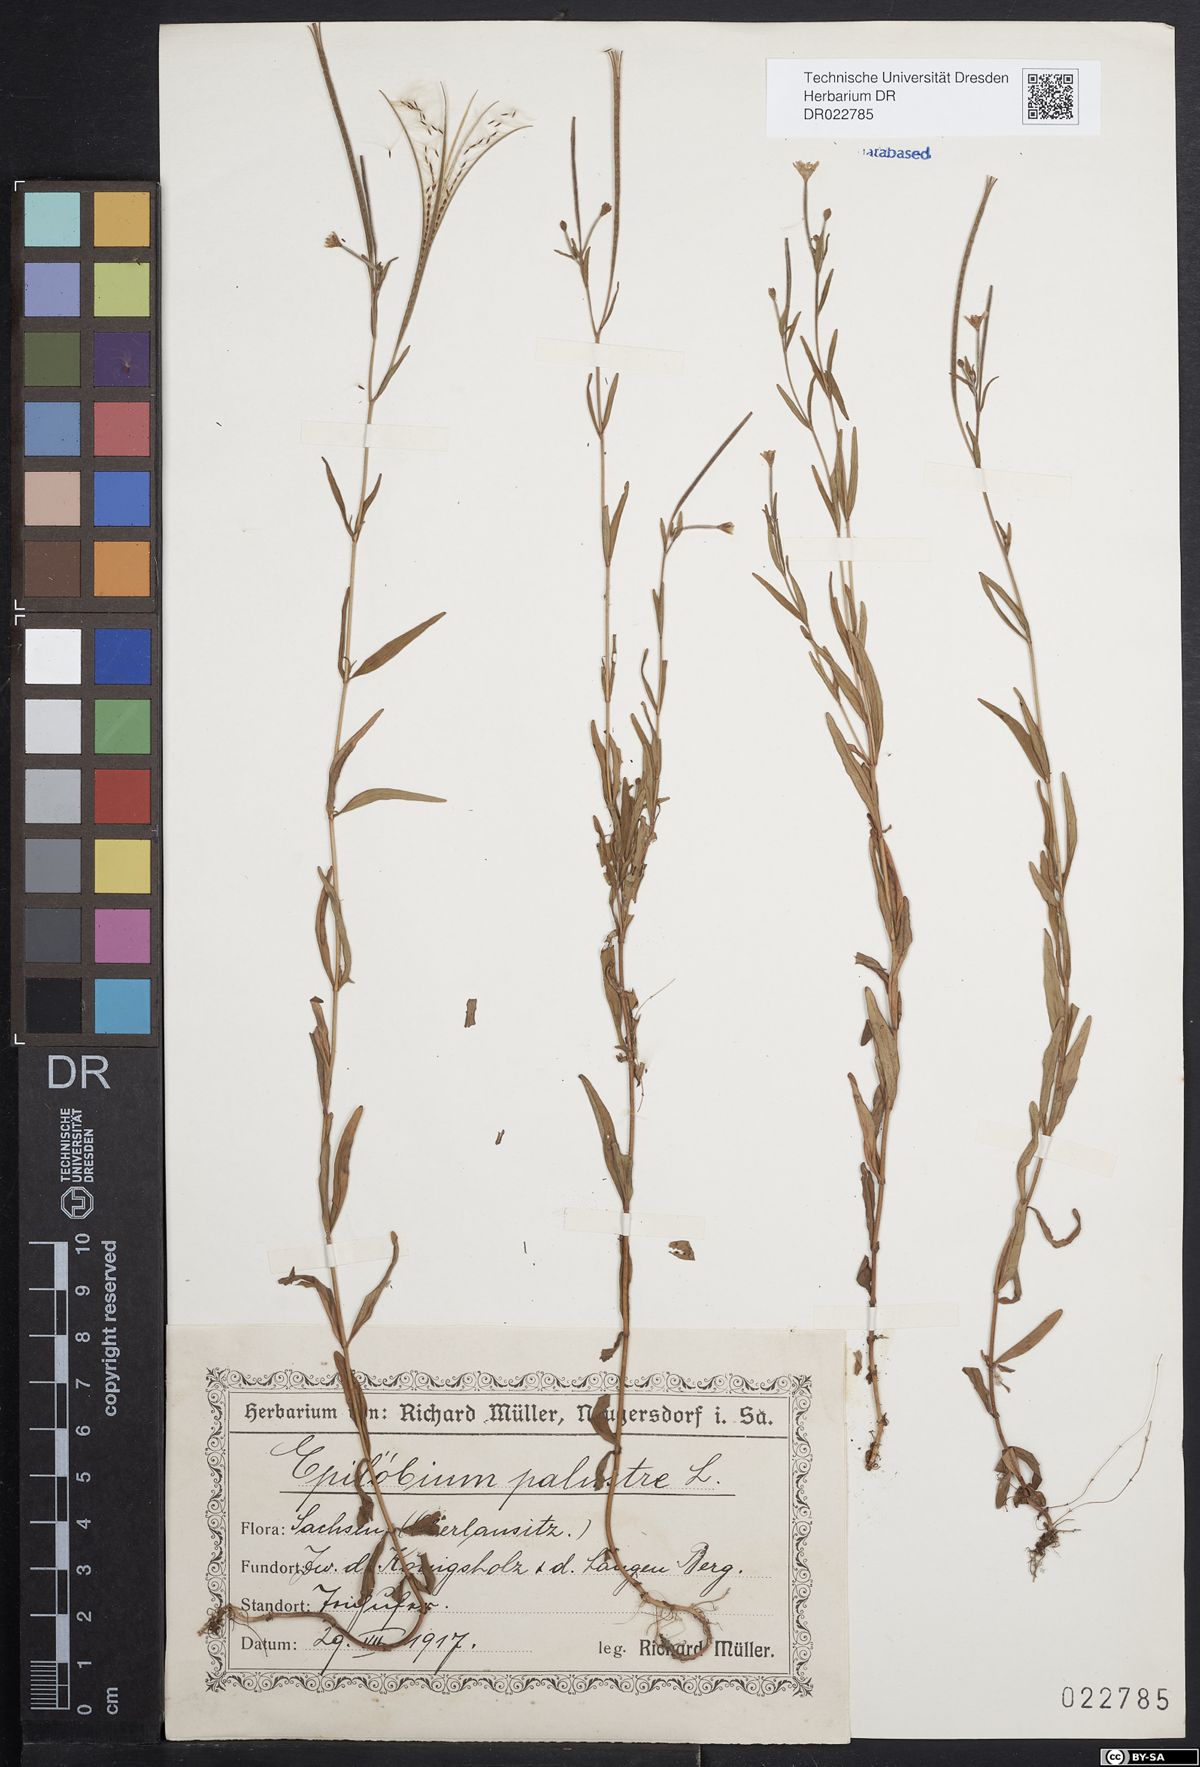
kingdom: Plantae
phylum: Tracheophyta
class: Magnoliopsida
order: Myrtales
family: Onagraceae
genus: Epilobium
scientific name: Epilobium palustre
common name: Marsh willowherb
